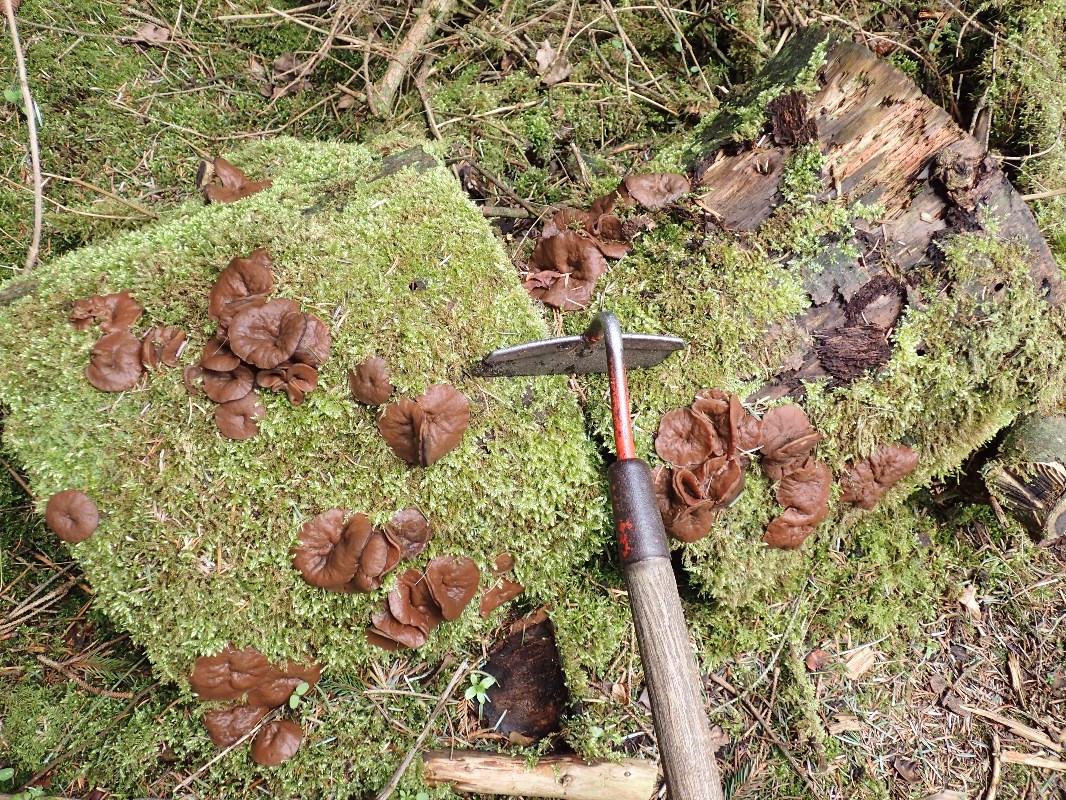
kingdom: Fungi
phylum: Ascomycota
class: Pezizomycetes
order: Pezizales
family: Discinaceae
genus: Discina
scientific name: Discina ancilis
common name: udbredt stenmorkel
